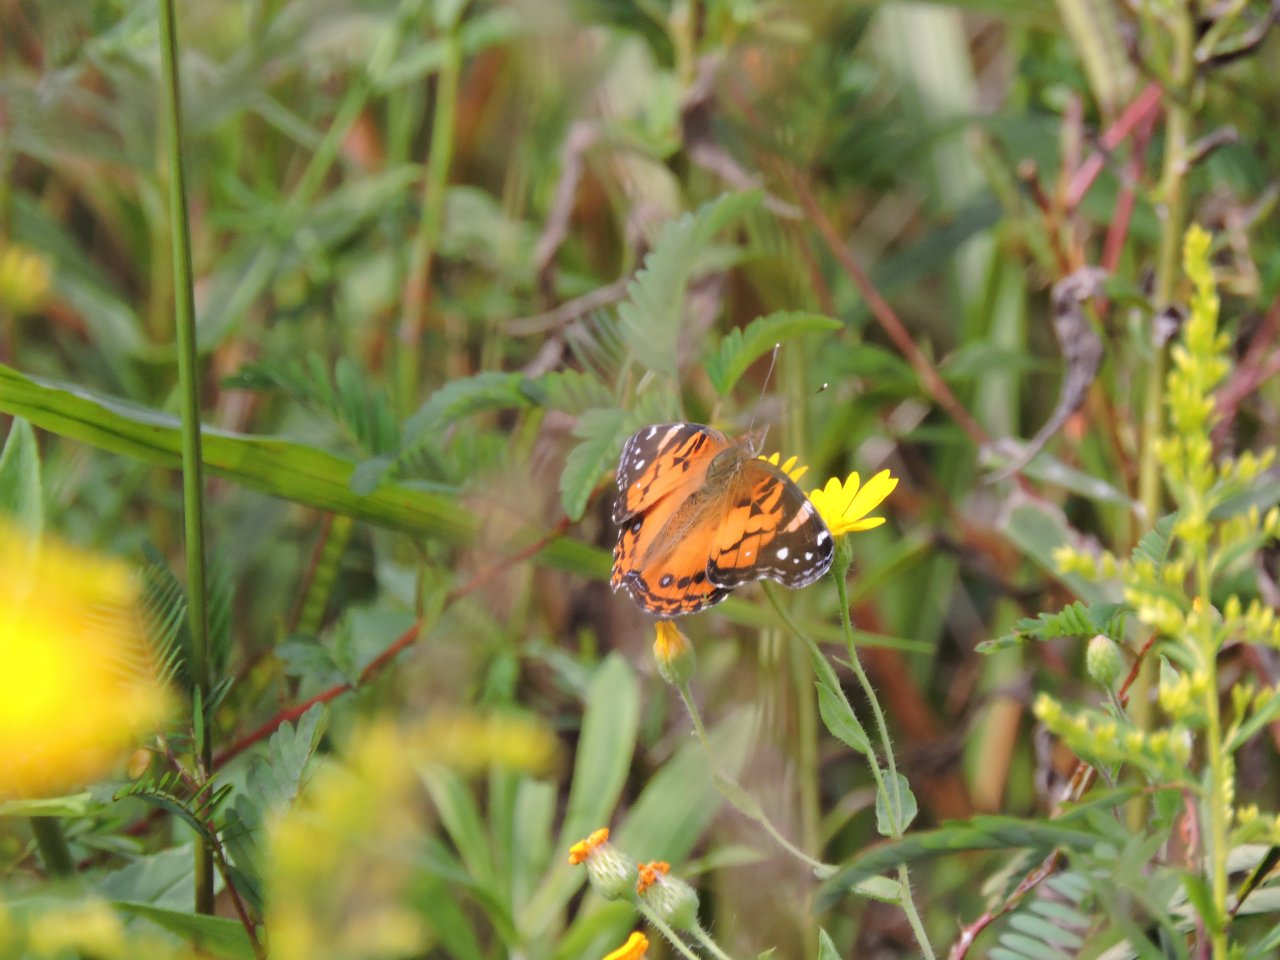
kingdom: Animalia
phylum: Arthropoda
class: Insecta
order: Lepidoptera
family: Nymphalidae
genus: Vanessa
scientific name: Vanessa virginiensis
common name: American Lady
